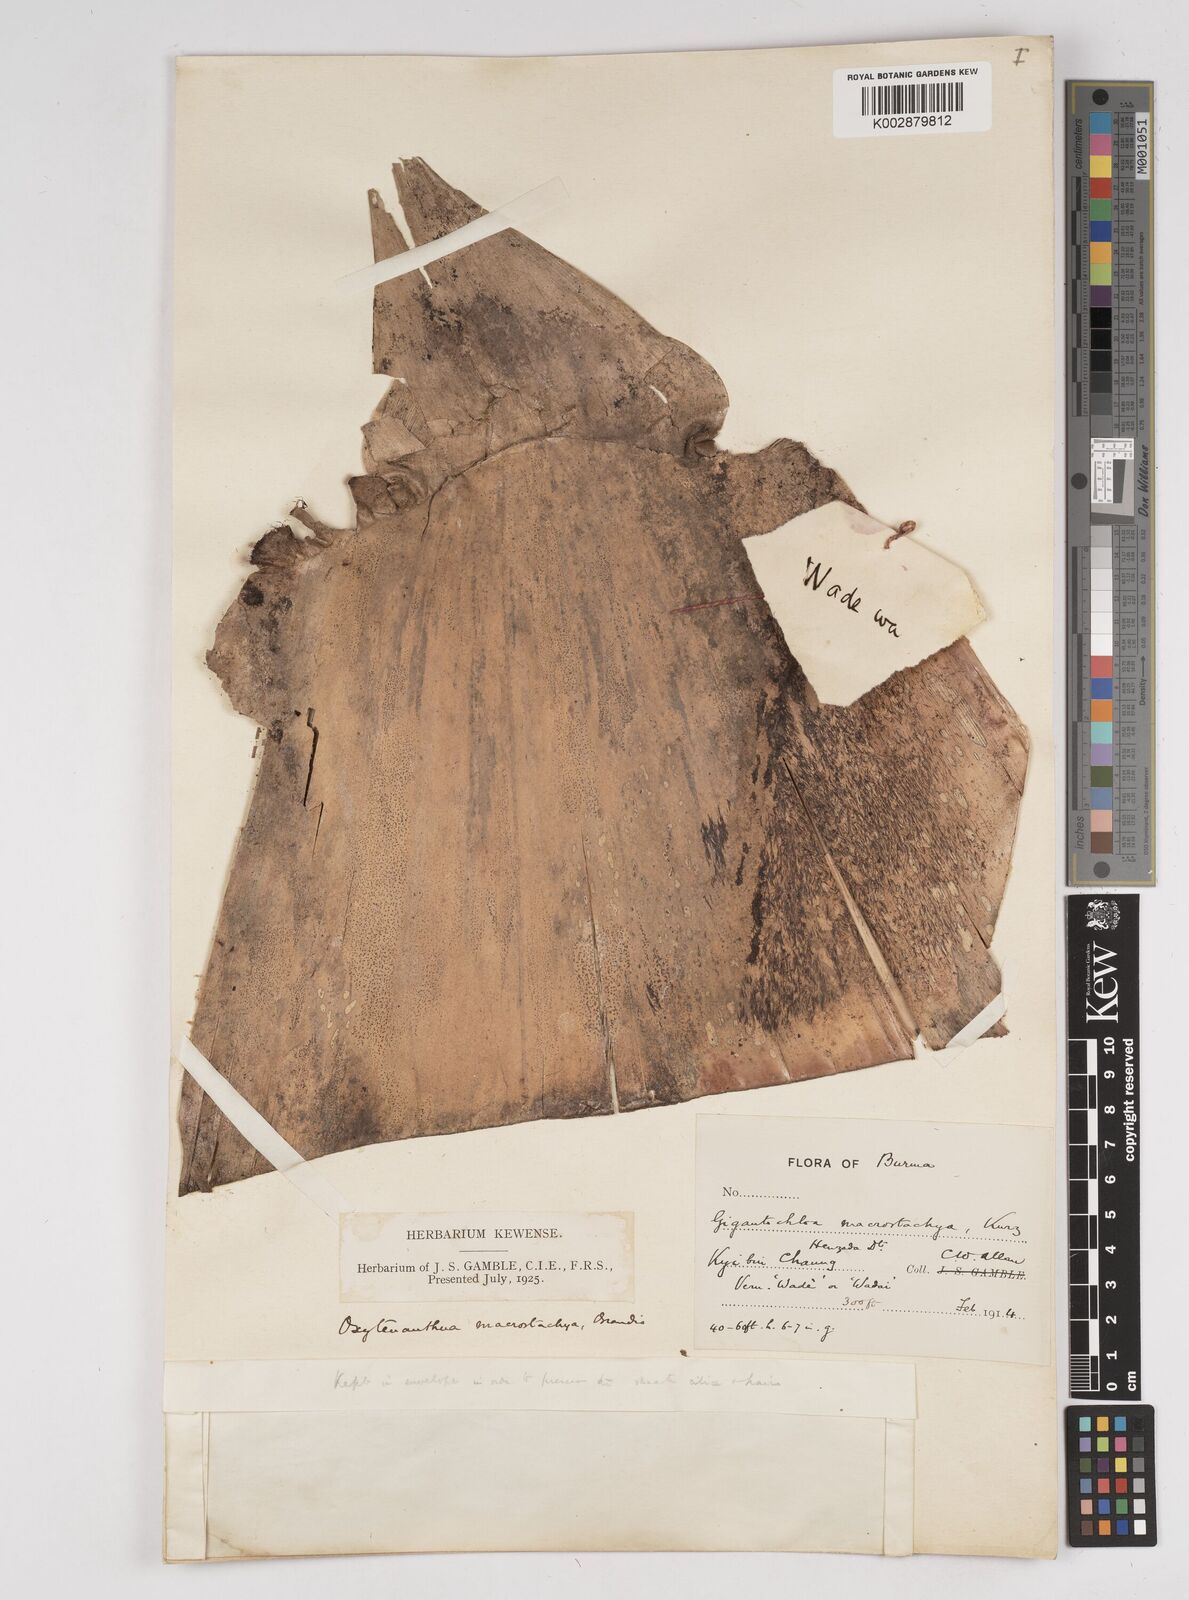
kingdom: Plantae
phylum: Tracheophyta
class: Liliopsida
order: Poales
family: Poaceae
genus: Gigantochloa
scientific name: Gigantochloa macrostachya
